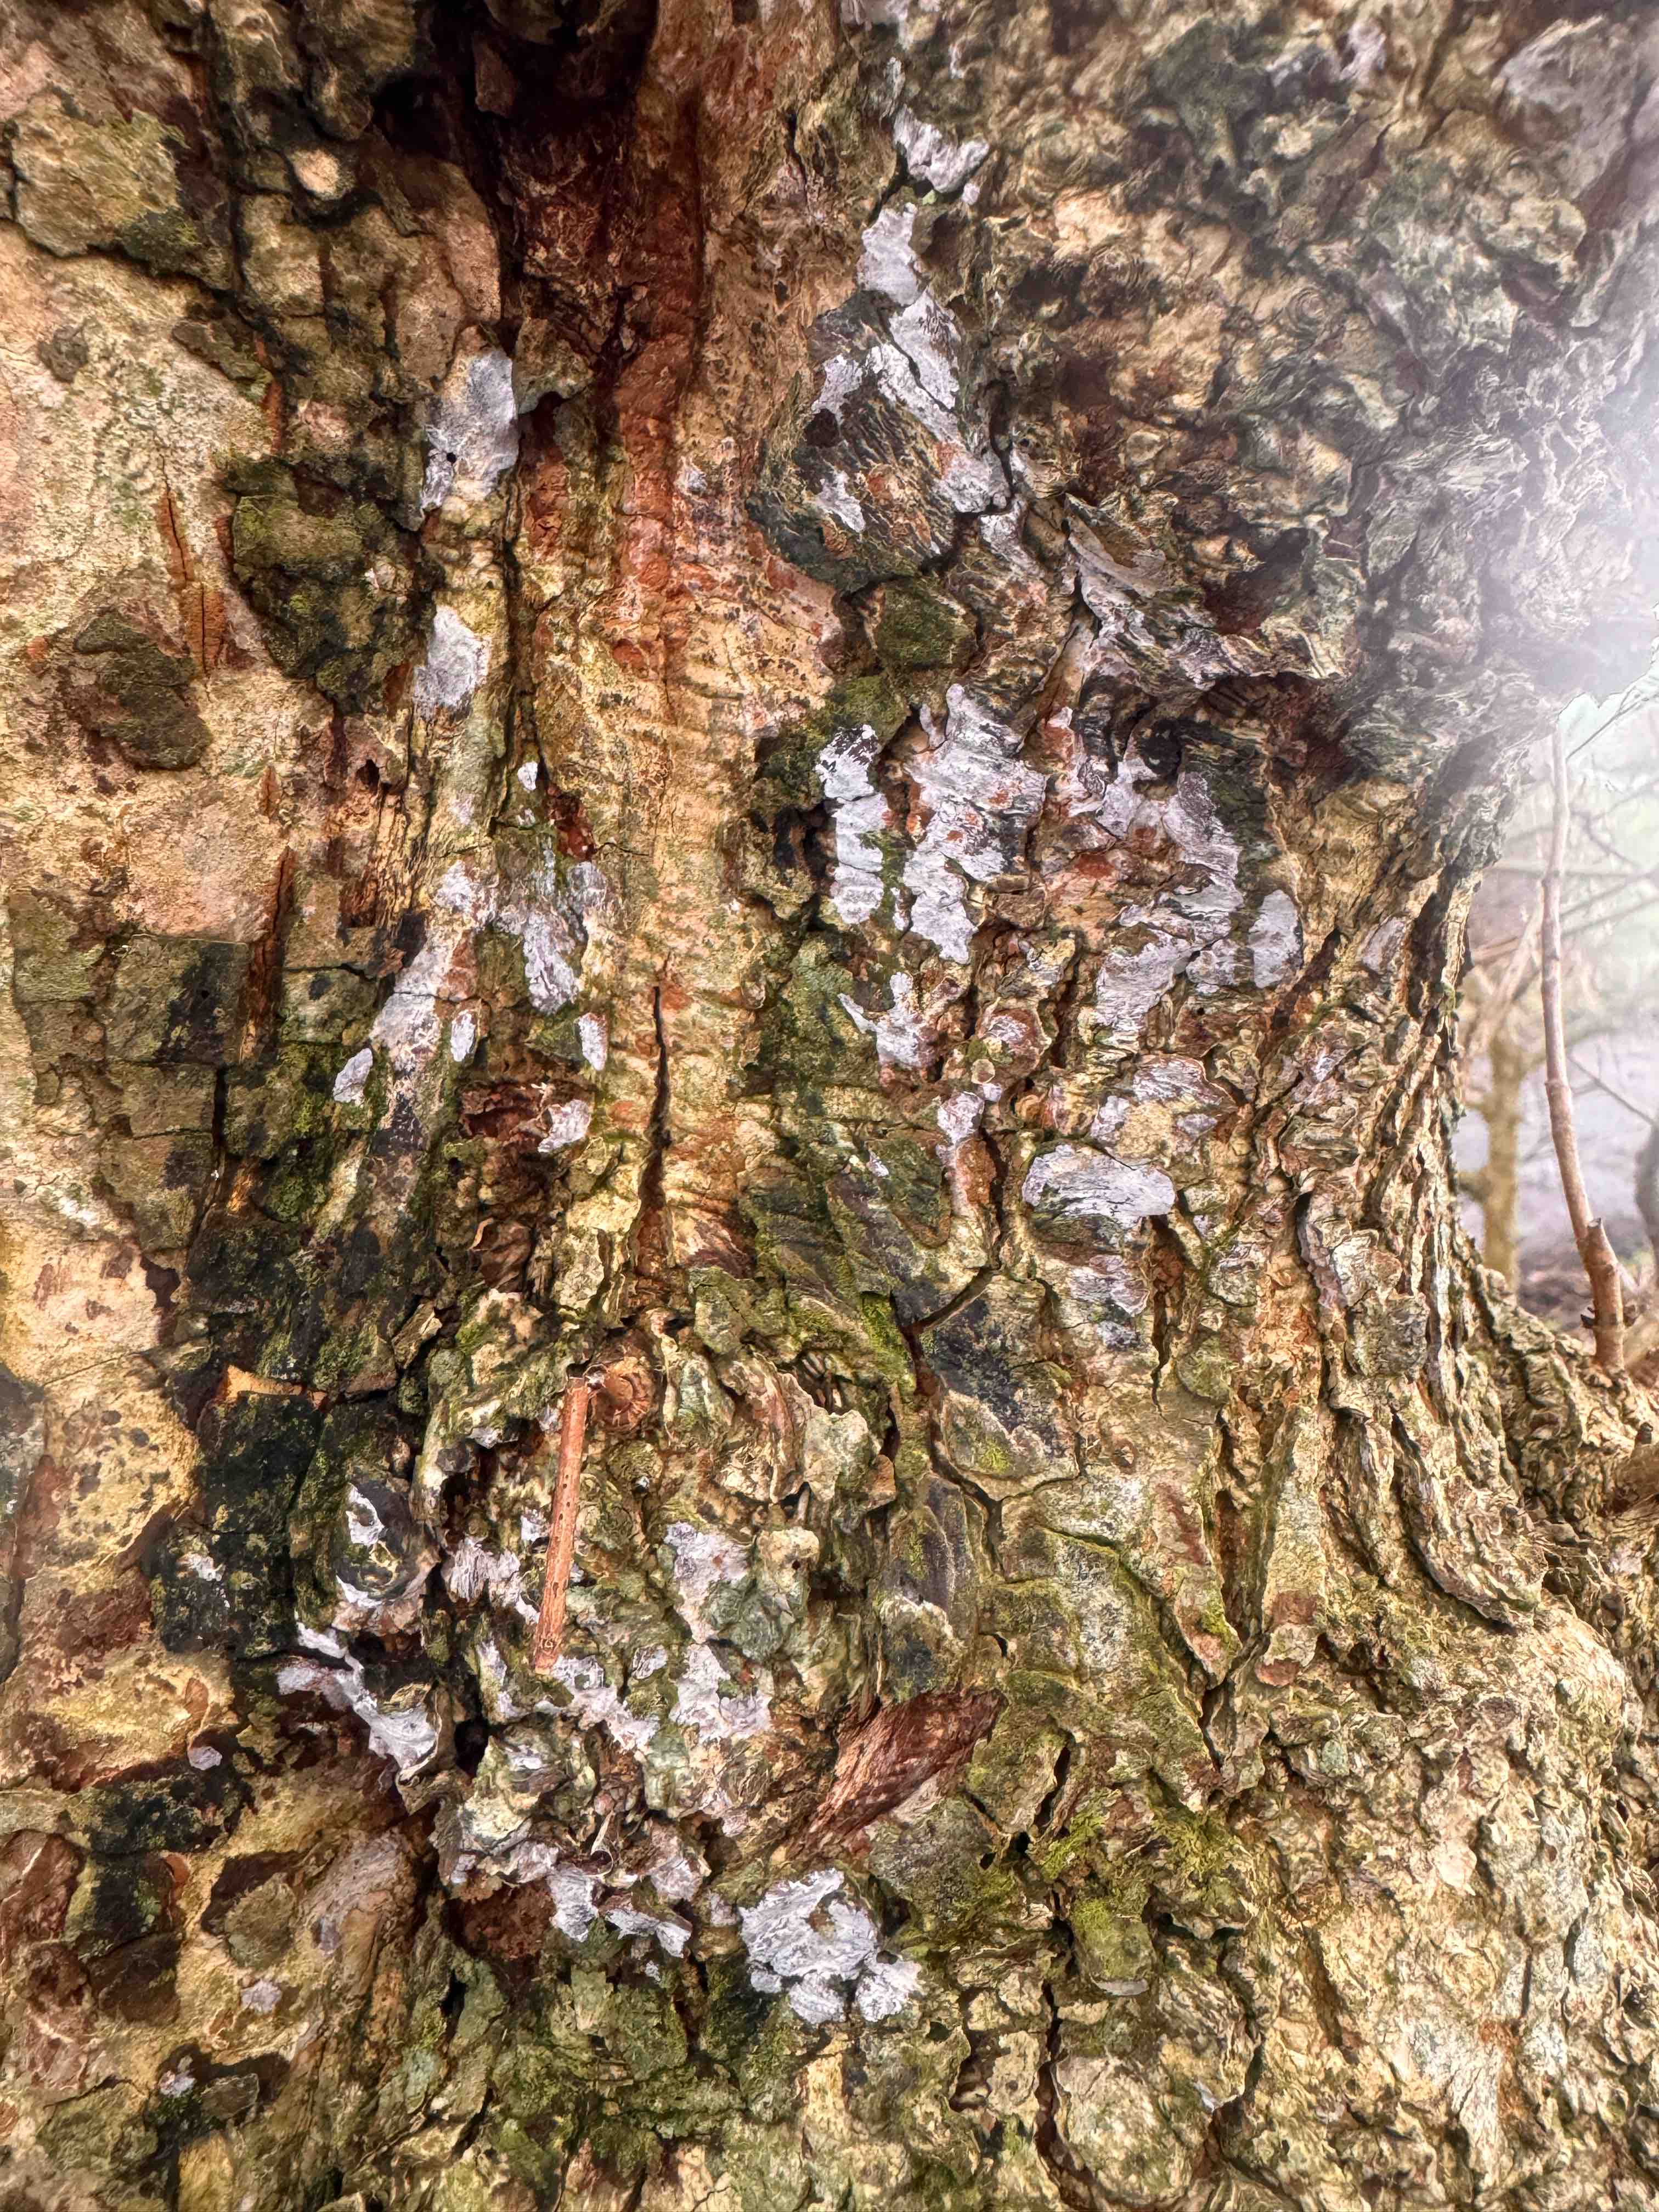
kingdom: Fungi
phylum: Basidiomycota
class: Agaricomycetes
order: Agaricales
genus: Dendrothele
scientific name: Dendrothele acerina
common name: navr-kalkplet
